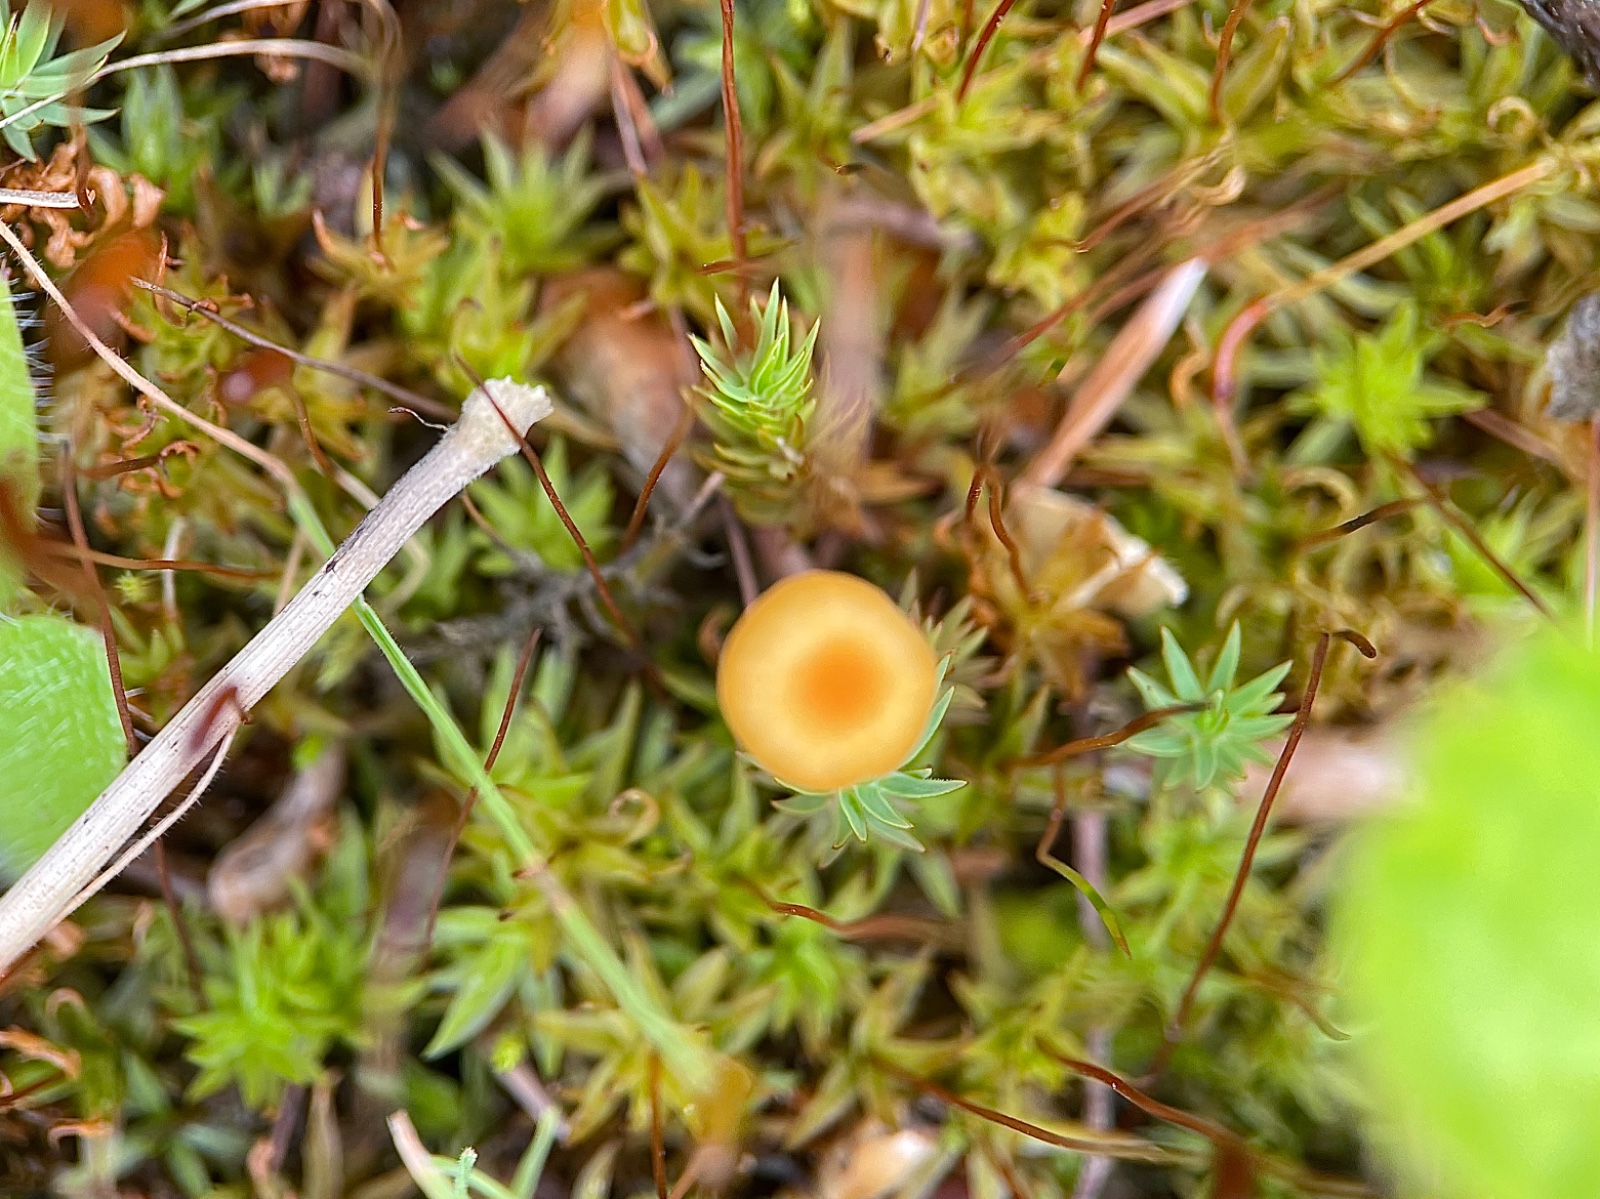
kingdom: Fungi
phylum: Basidiomycota
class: Agaricomycetes
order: Hymenochaetales
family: Rickenellaceae
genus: Rickenella
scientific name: Rickenella fibula
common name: orange mosnavlehat
